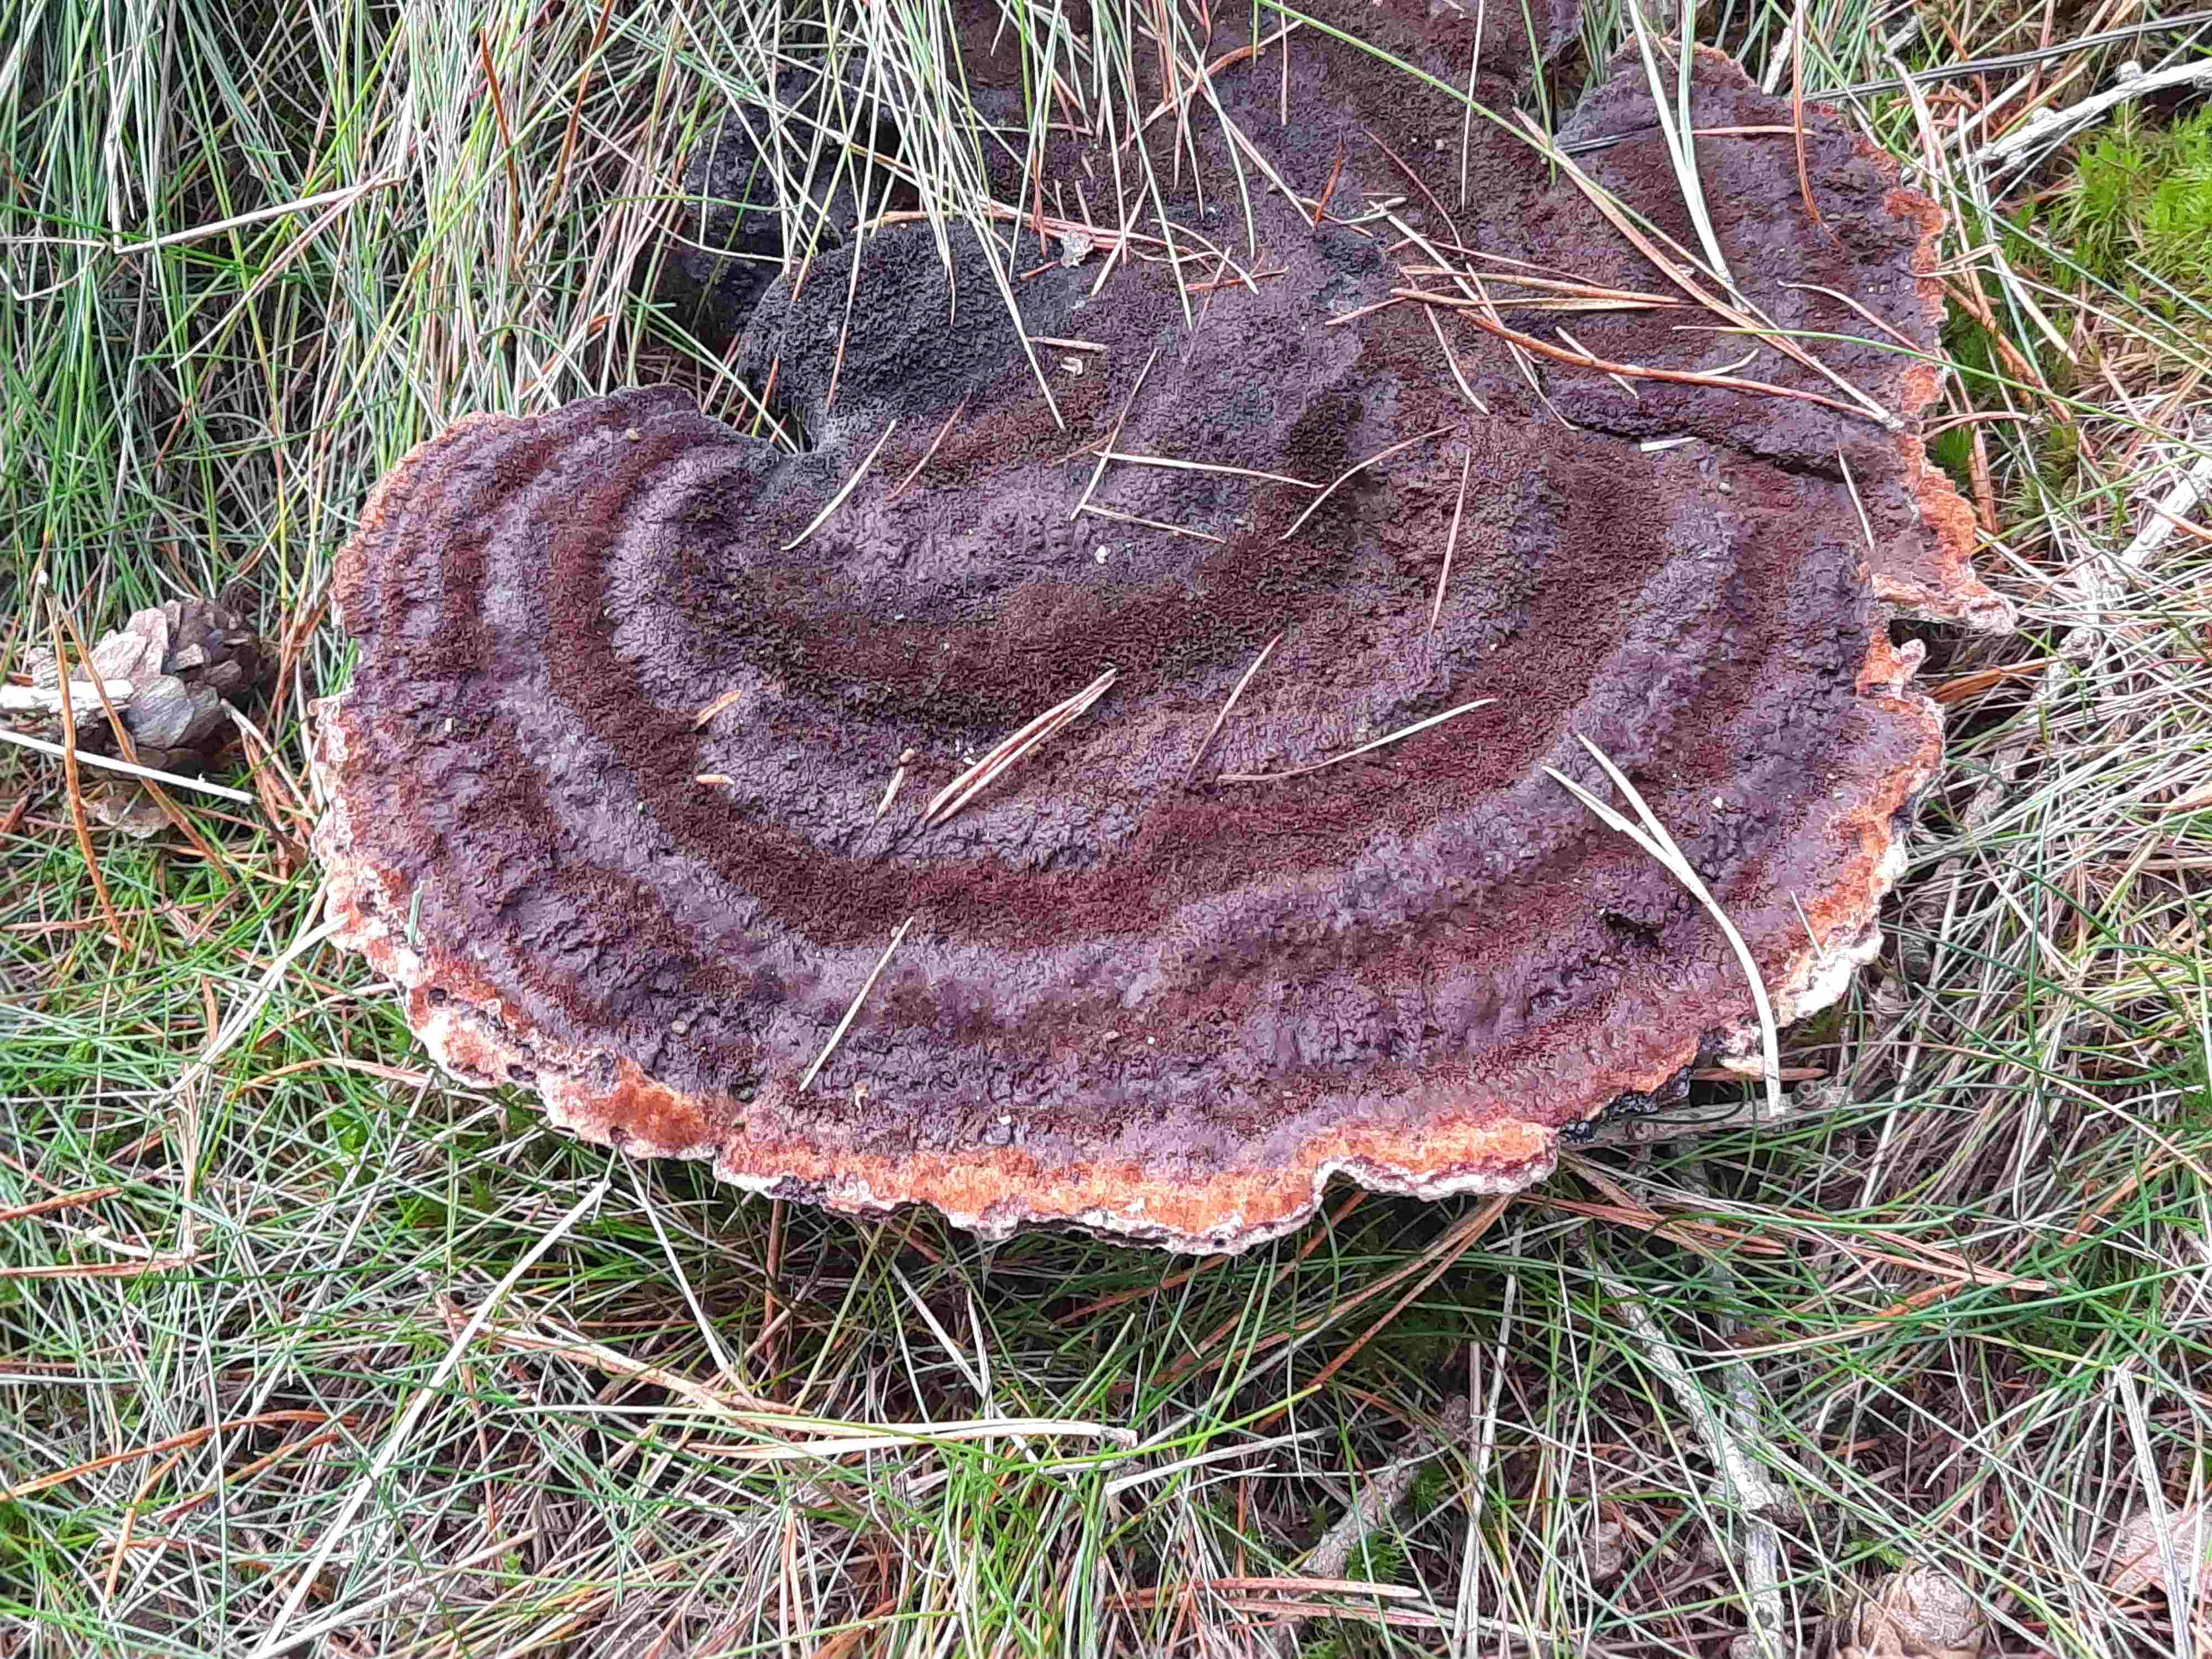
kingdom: Fungi
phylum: Basidiomycota
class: Agaricomycetes
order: Polyporales
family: Laetiporaceae
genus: Phaeolus
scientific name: Phaeolus schweinitzii
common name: brunporesvamp
